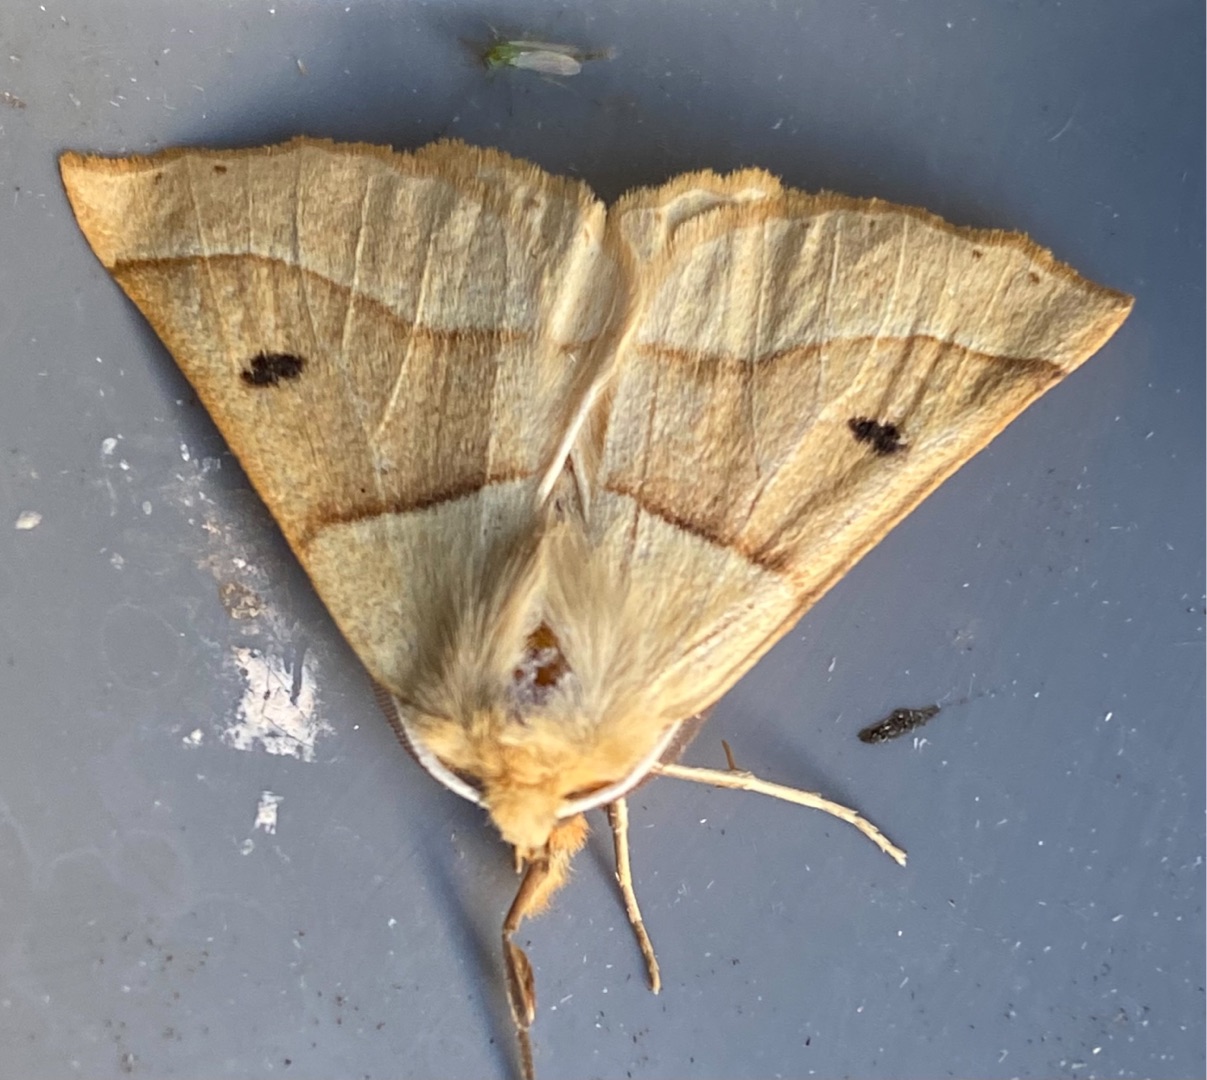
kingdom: Animalia
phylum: Arthropoda
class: Insecta
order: Lepidoptera
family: Geometridae
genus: Crocallis
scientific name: Crocallis elinguaria
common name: Okkergul rovmåler
